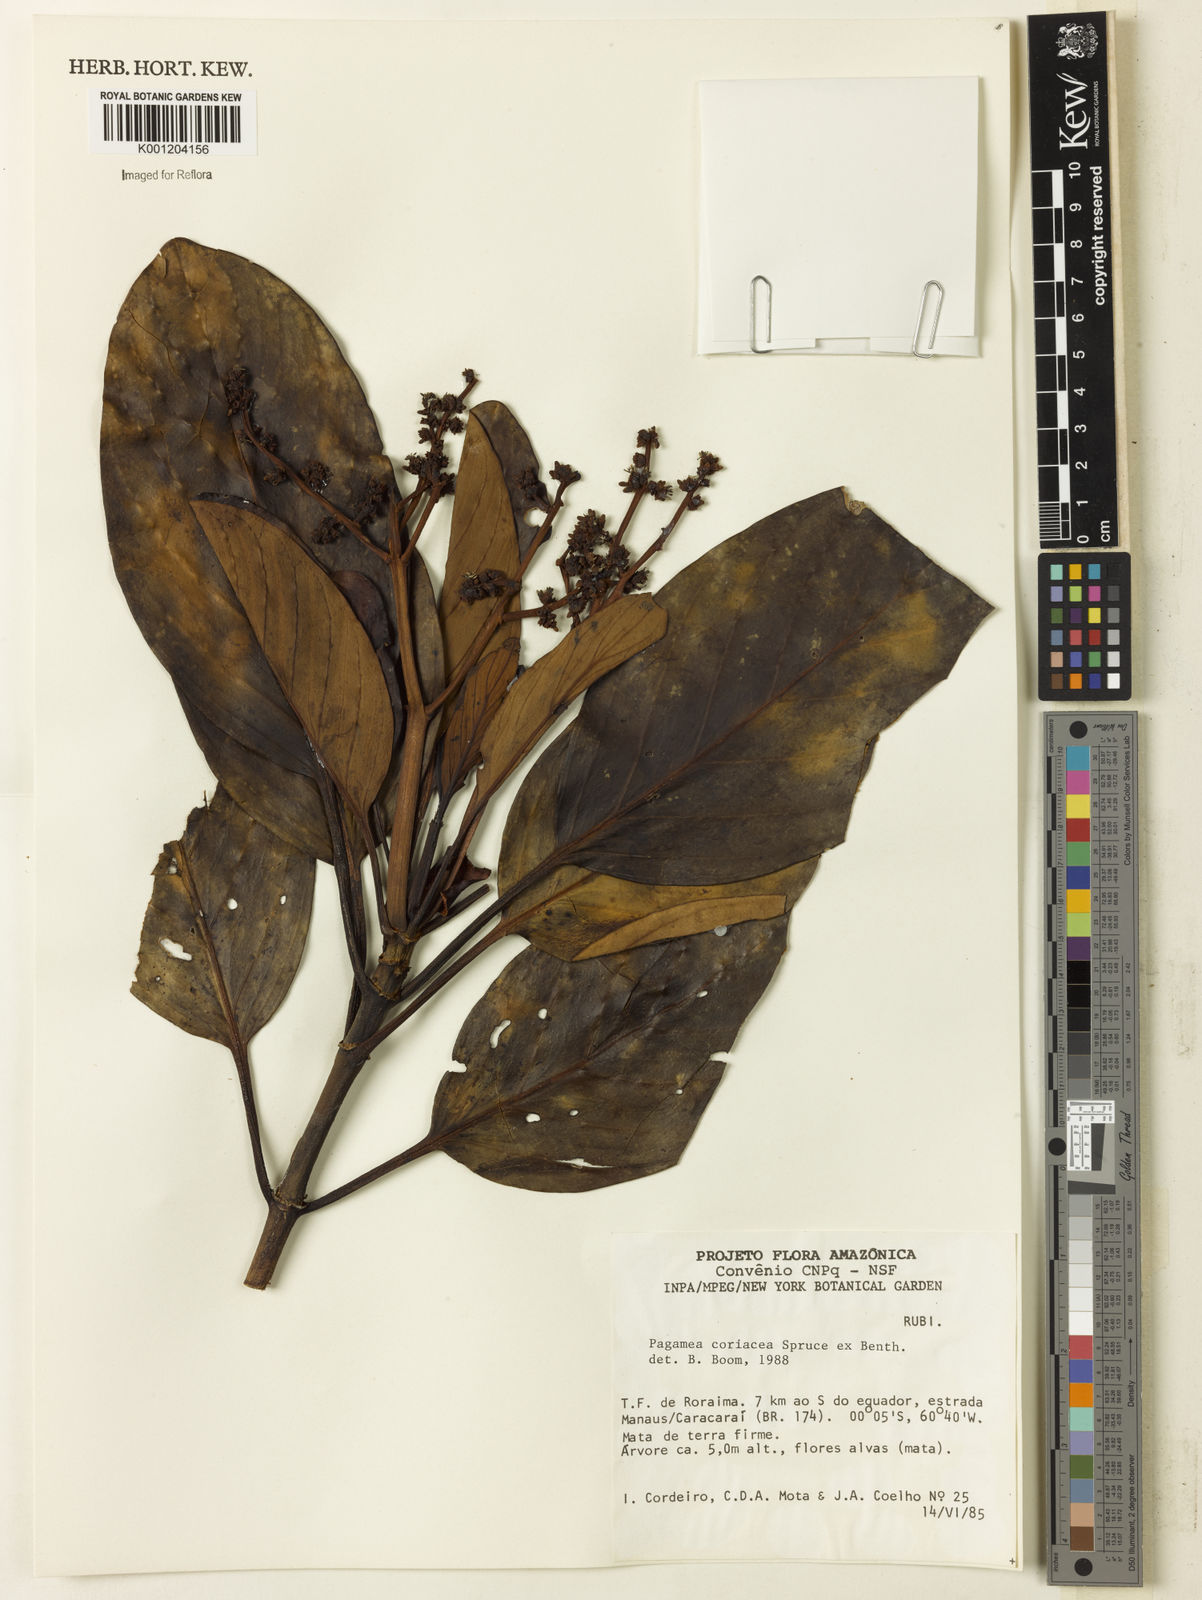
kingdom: Plantae
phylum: Tracheophyta
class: Magnoliopsida
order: Gentianales
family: Rubiaceae
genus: Pagamea
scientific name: Pagamea coriacea
